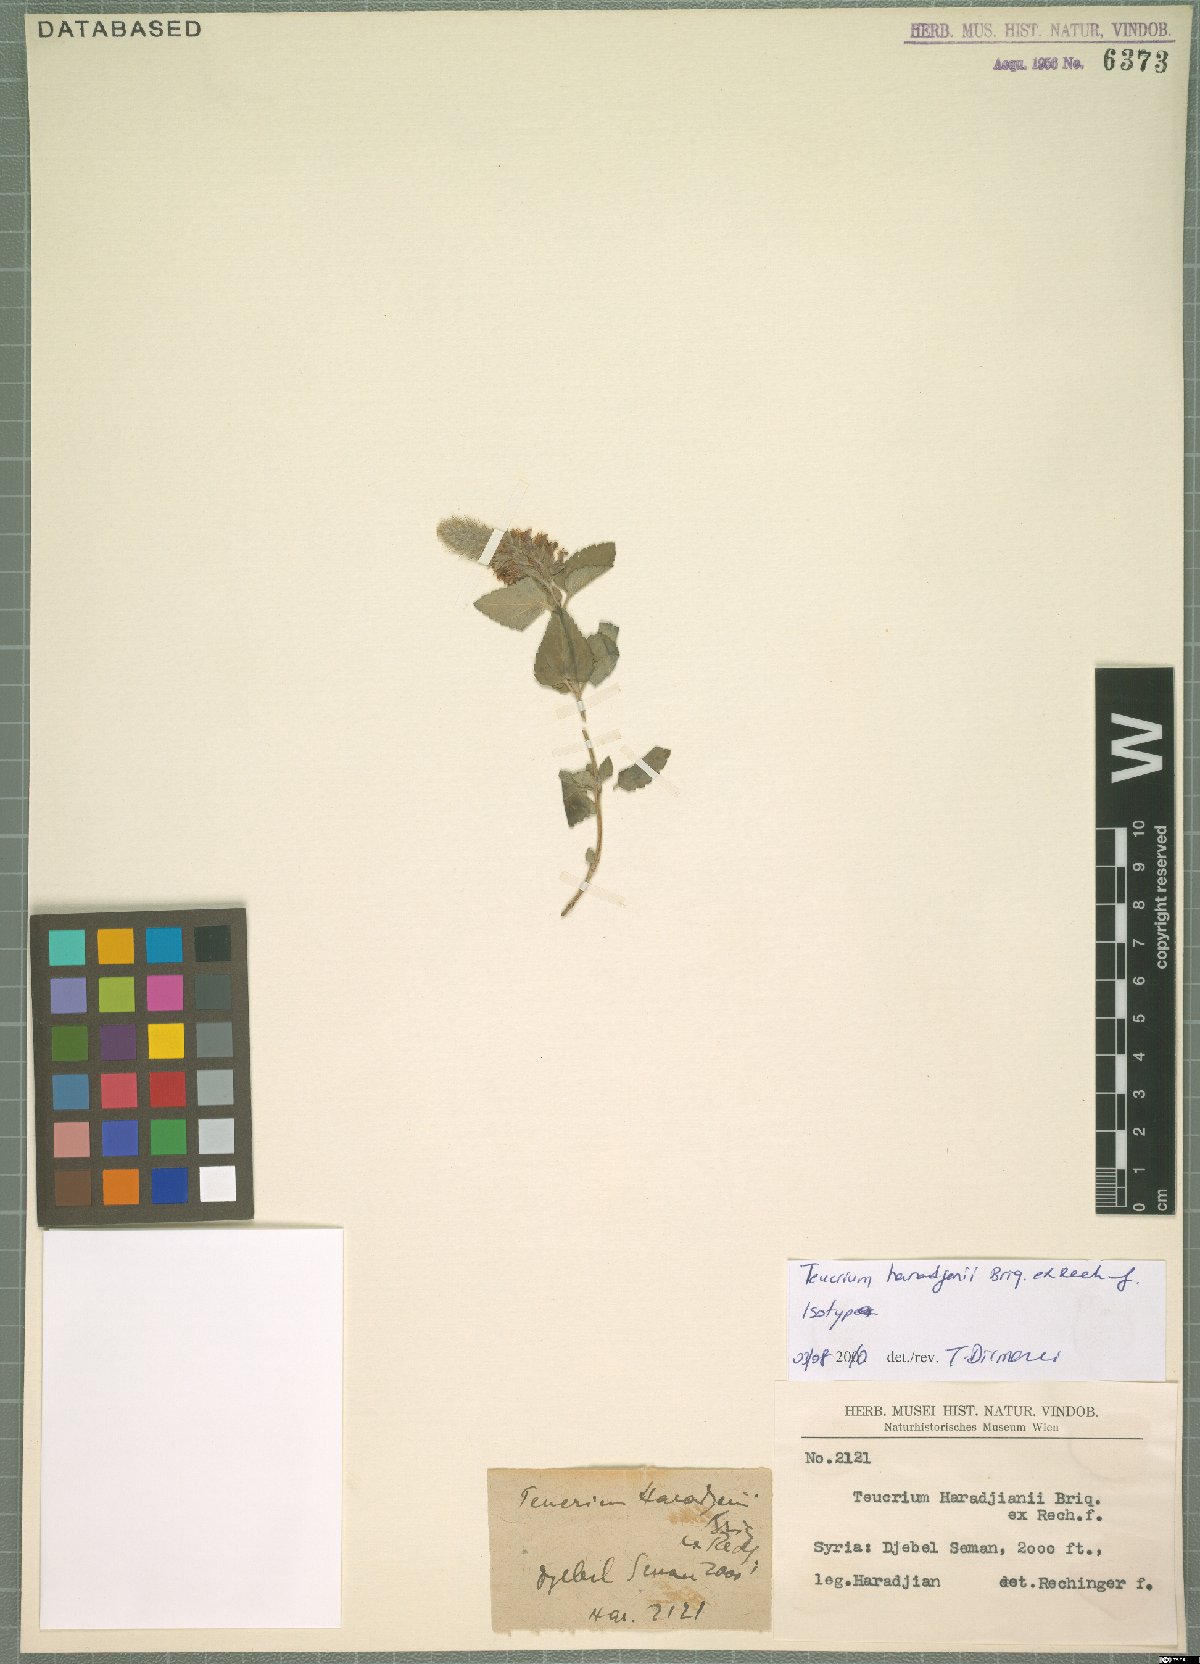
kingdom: Plantae
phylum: Tracheophyta
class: Magnoliopsida
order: Lamiales
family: Lamiaceae
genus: Teucrium
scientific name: Teucrium haradjanii
